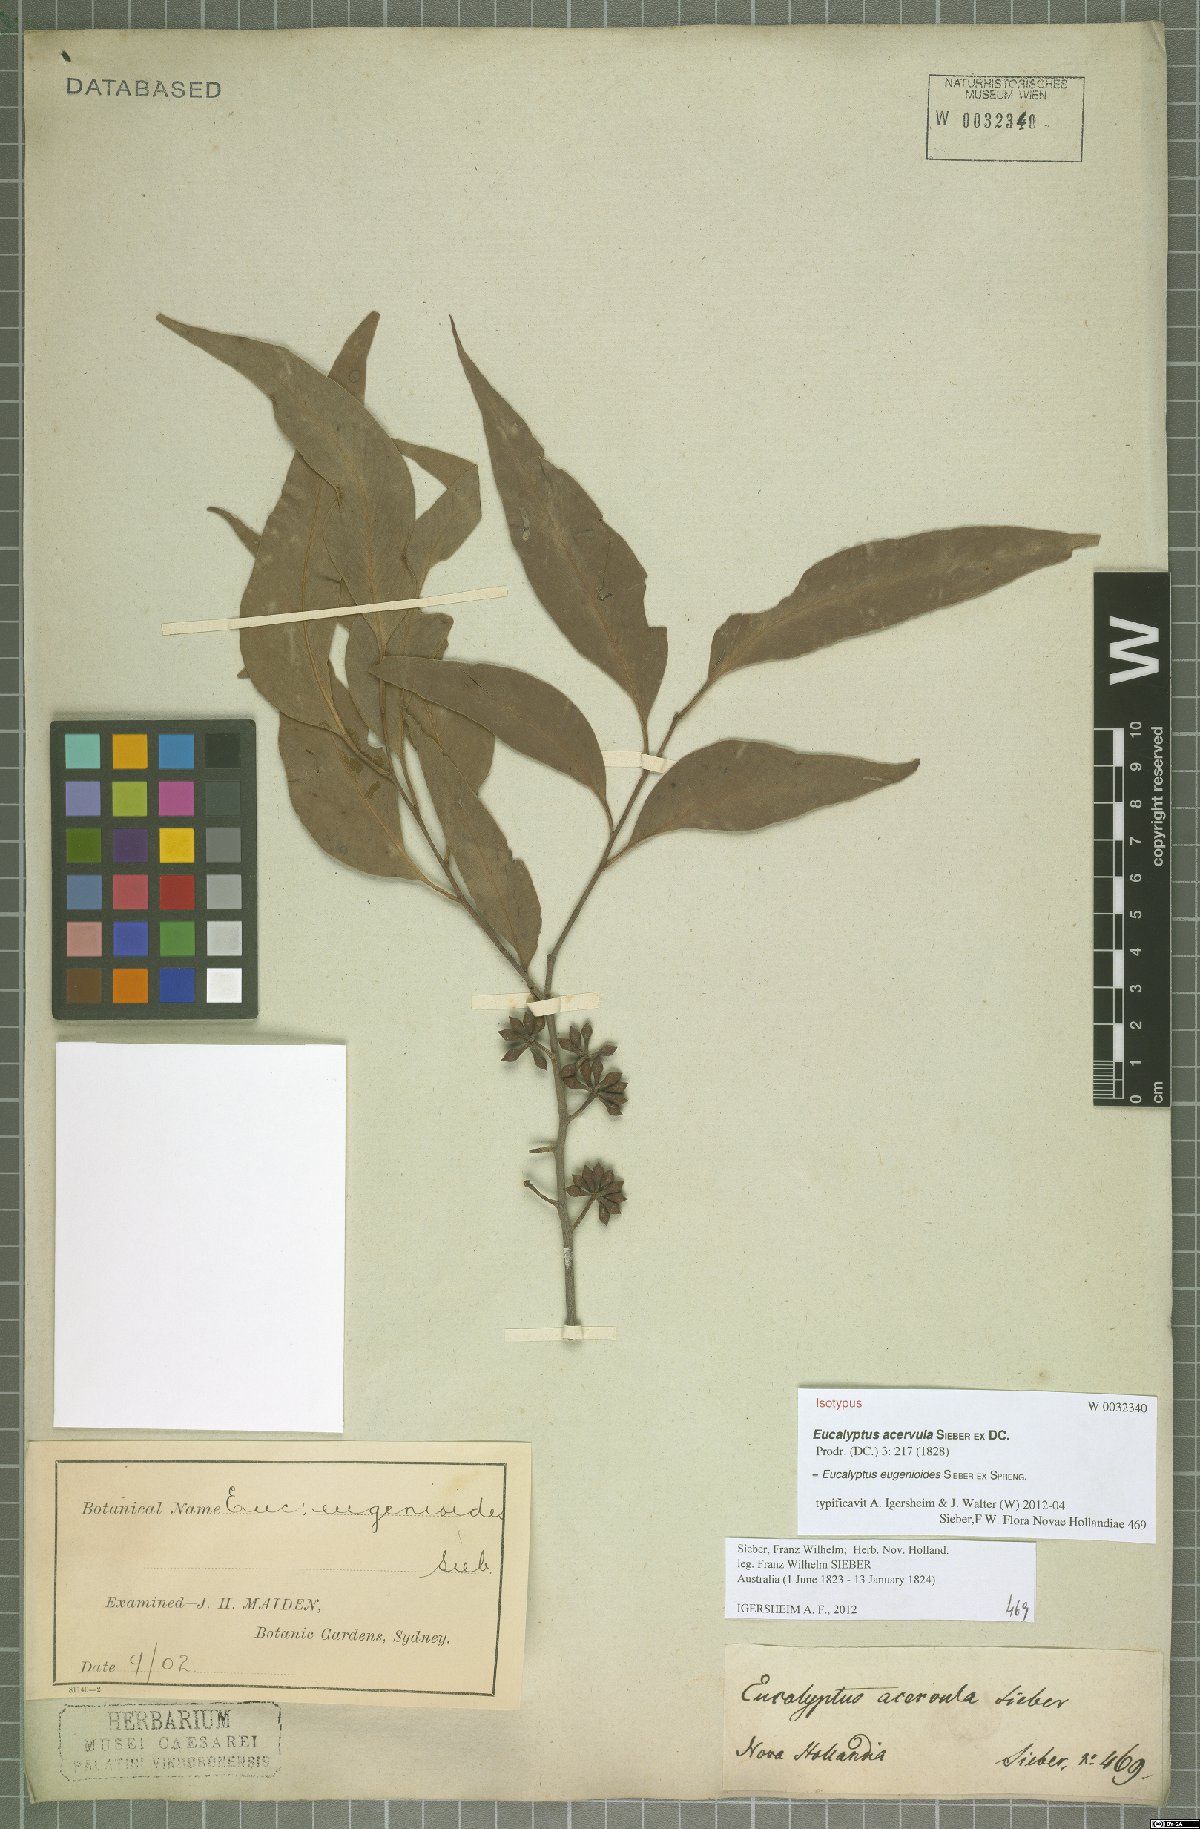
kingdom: Plantae
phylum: Tracheophyta
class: Magnoliopsida
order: Myrtales
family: Myrtaceae
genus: Eucalyptus
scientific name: Eucalyptus eugenioides
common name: Narrow-leaved-stringybark
